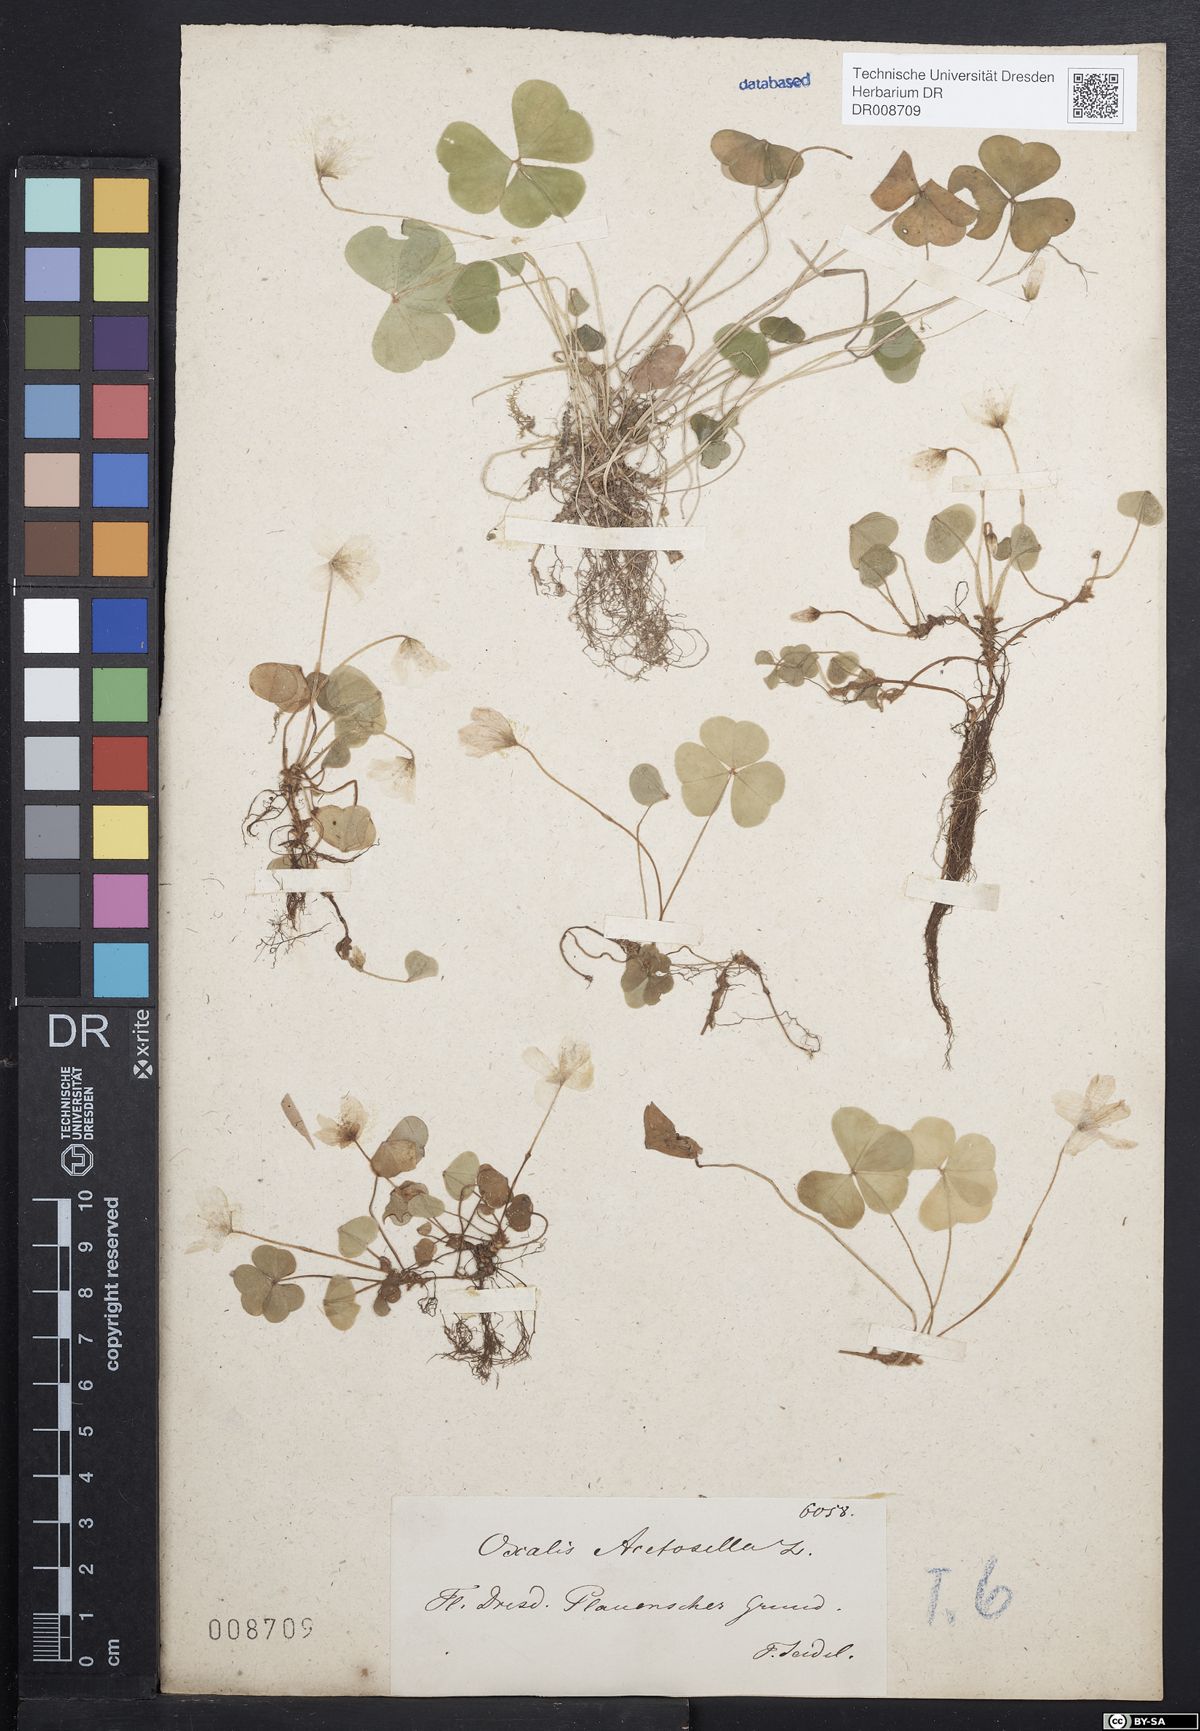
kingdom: Plantae
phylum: Tracheophyta
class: Magnoliopsida
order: Oxalidales
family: Oxalidaceae
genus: Oxalis
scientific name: Oxalis acetosella
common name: Wood-sorrel
